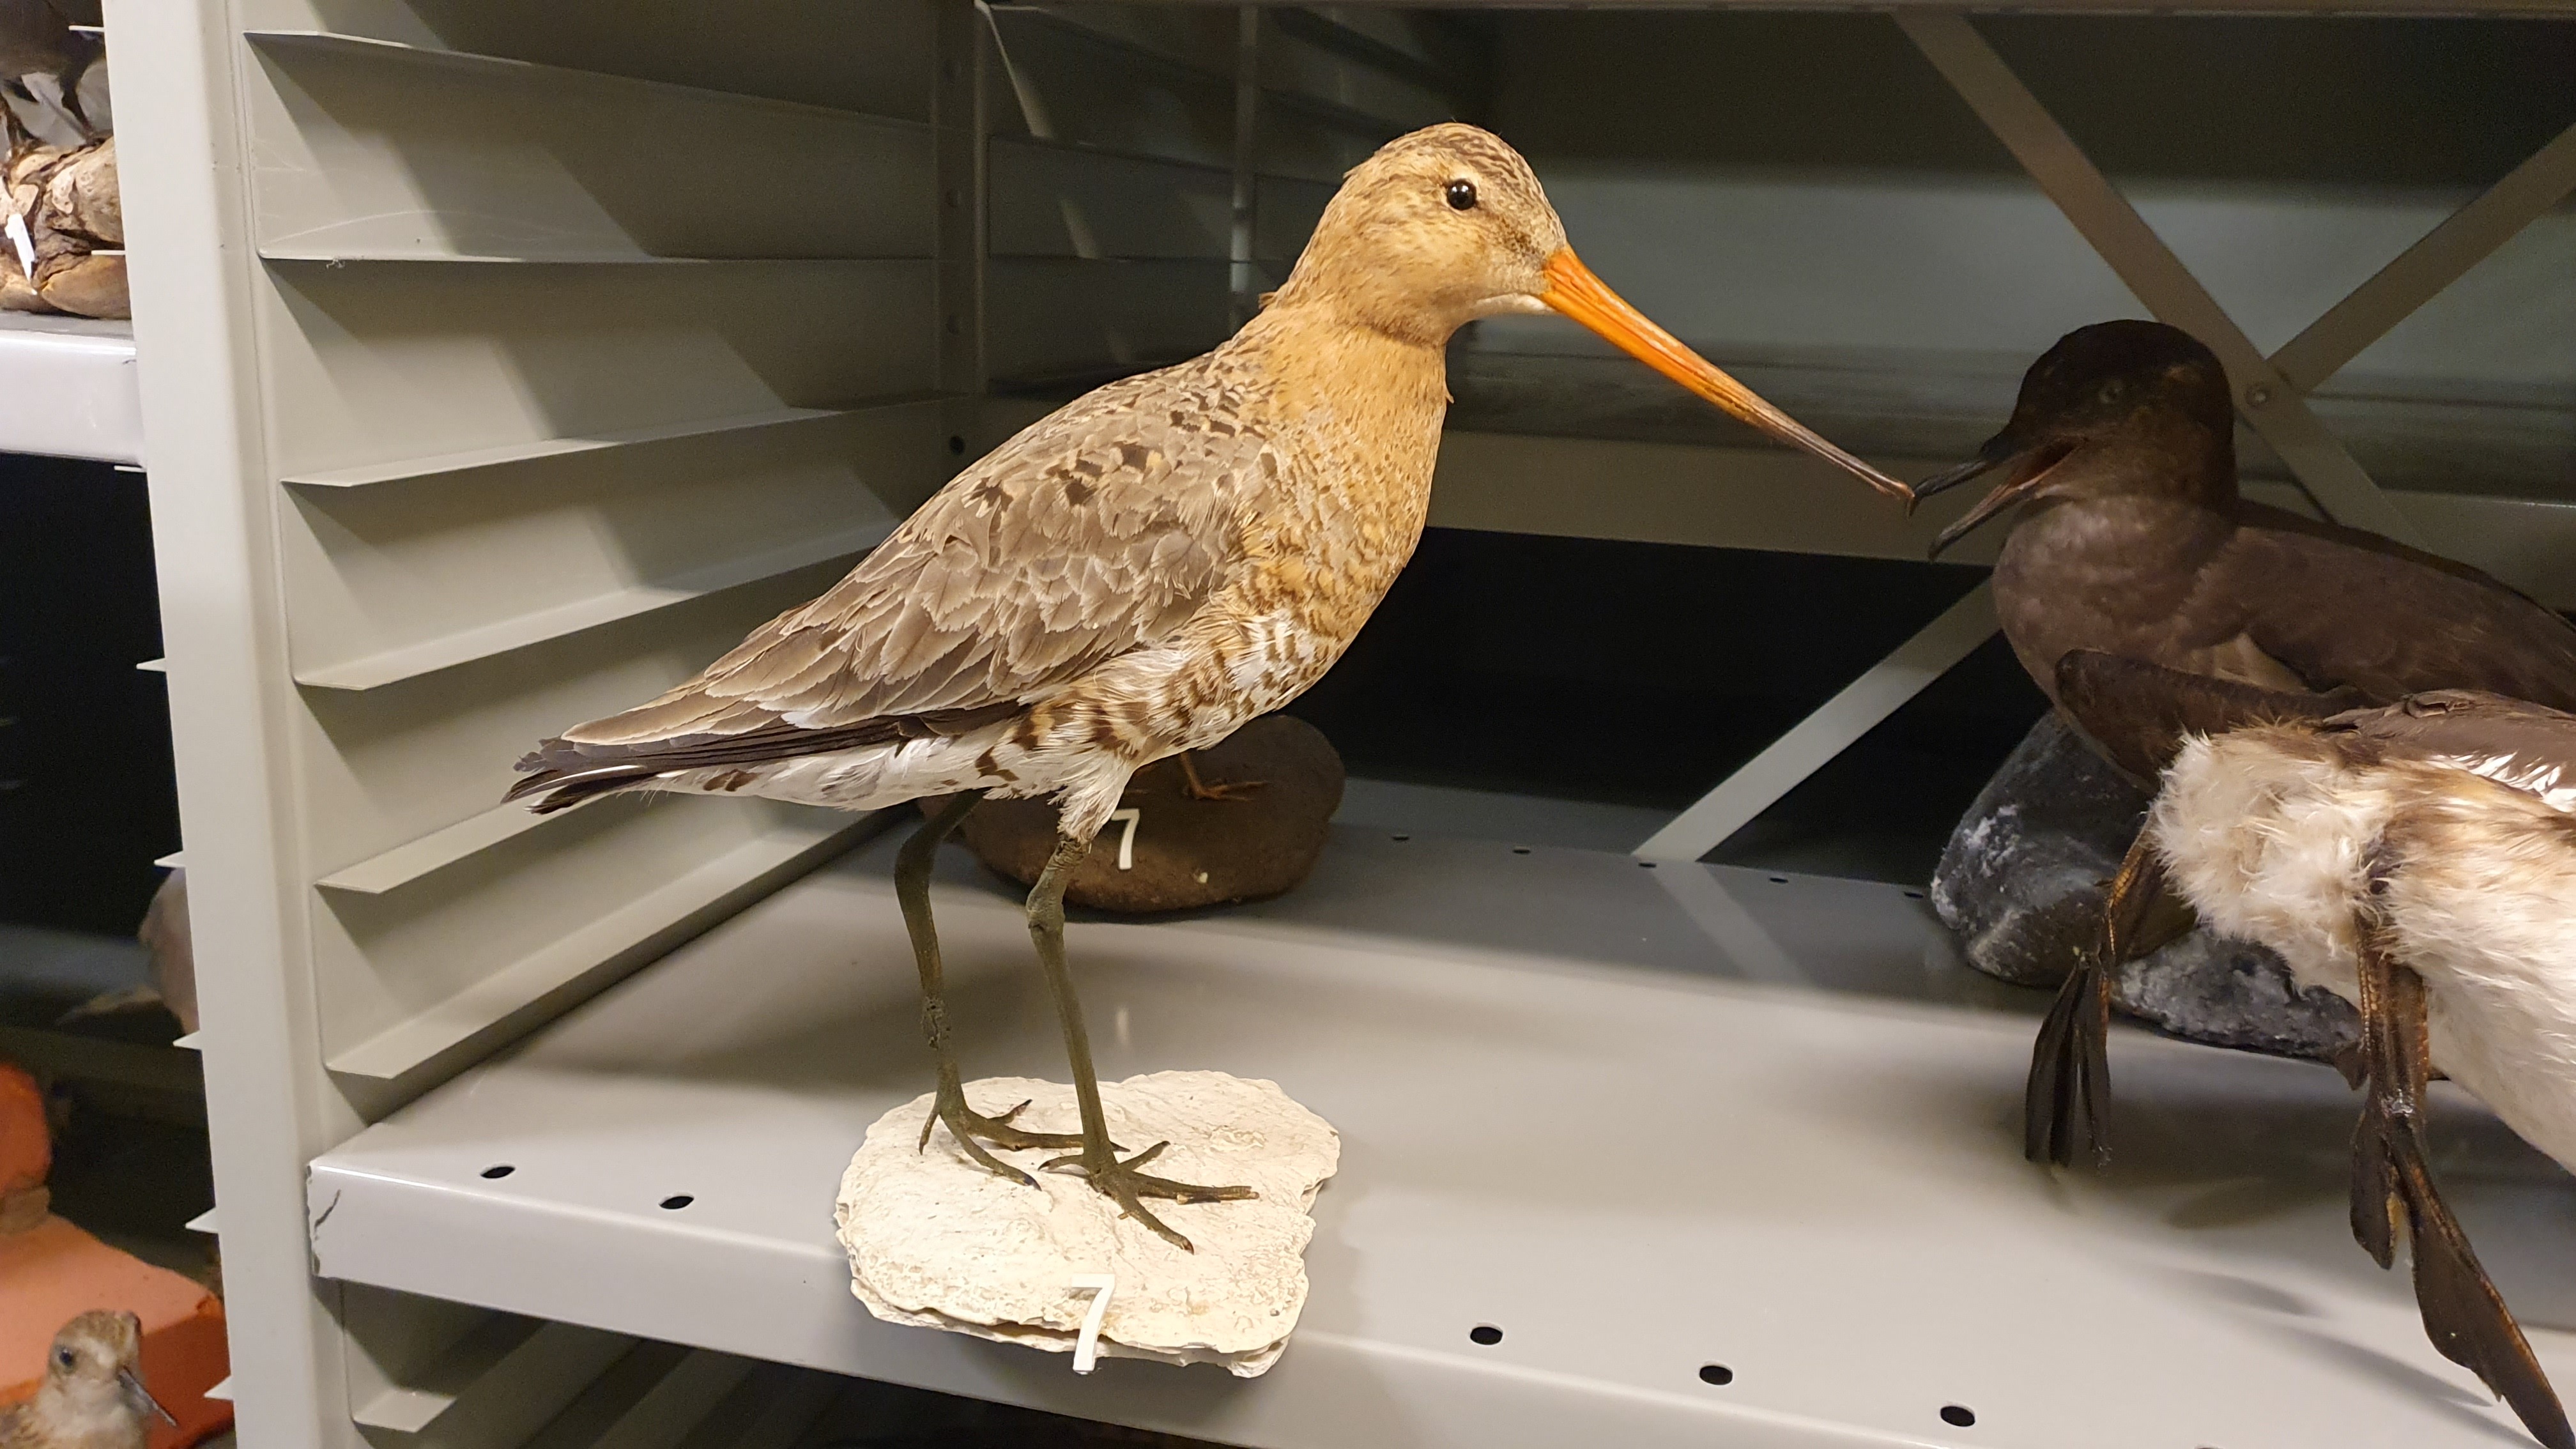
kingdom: Animalia
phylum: Chordata
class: Aves
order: Charadriiformes
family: Scolopacidae
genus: Limosa
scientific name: Limosa limosa
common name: Black-tailed godwit
